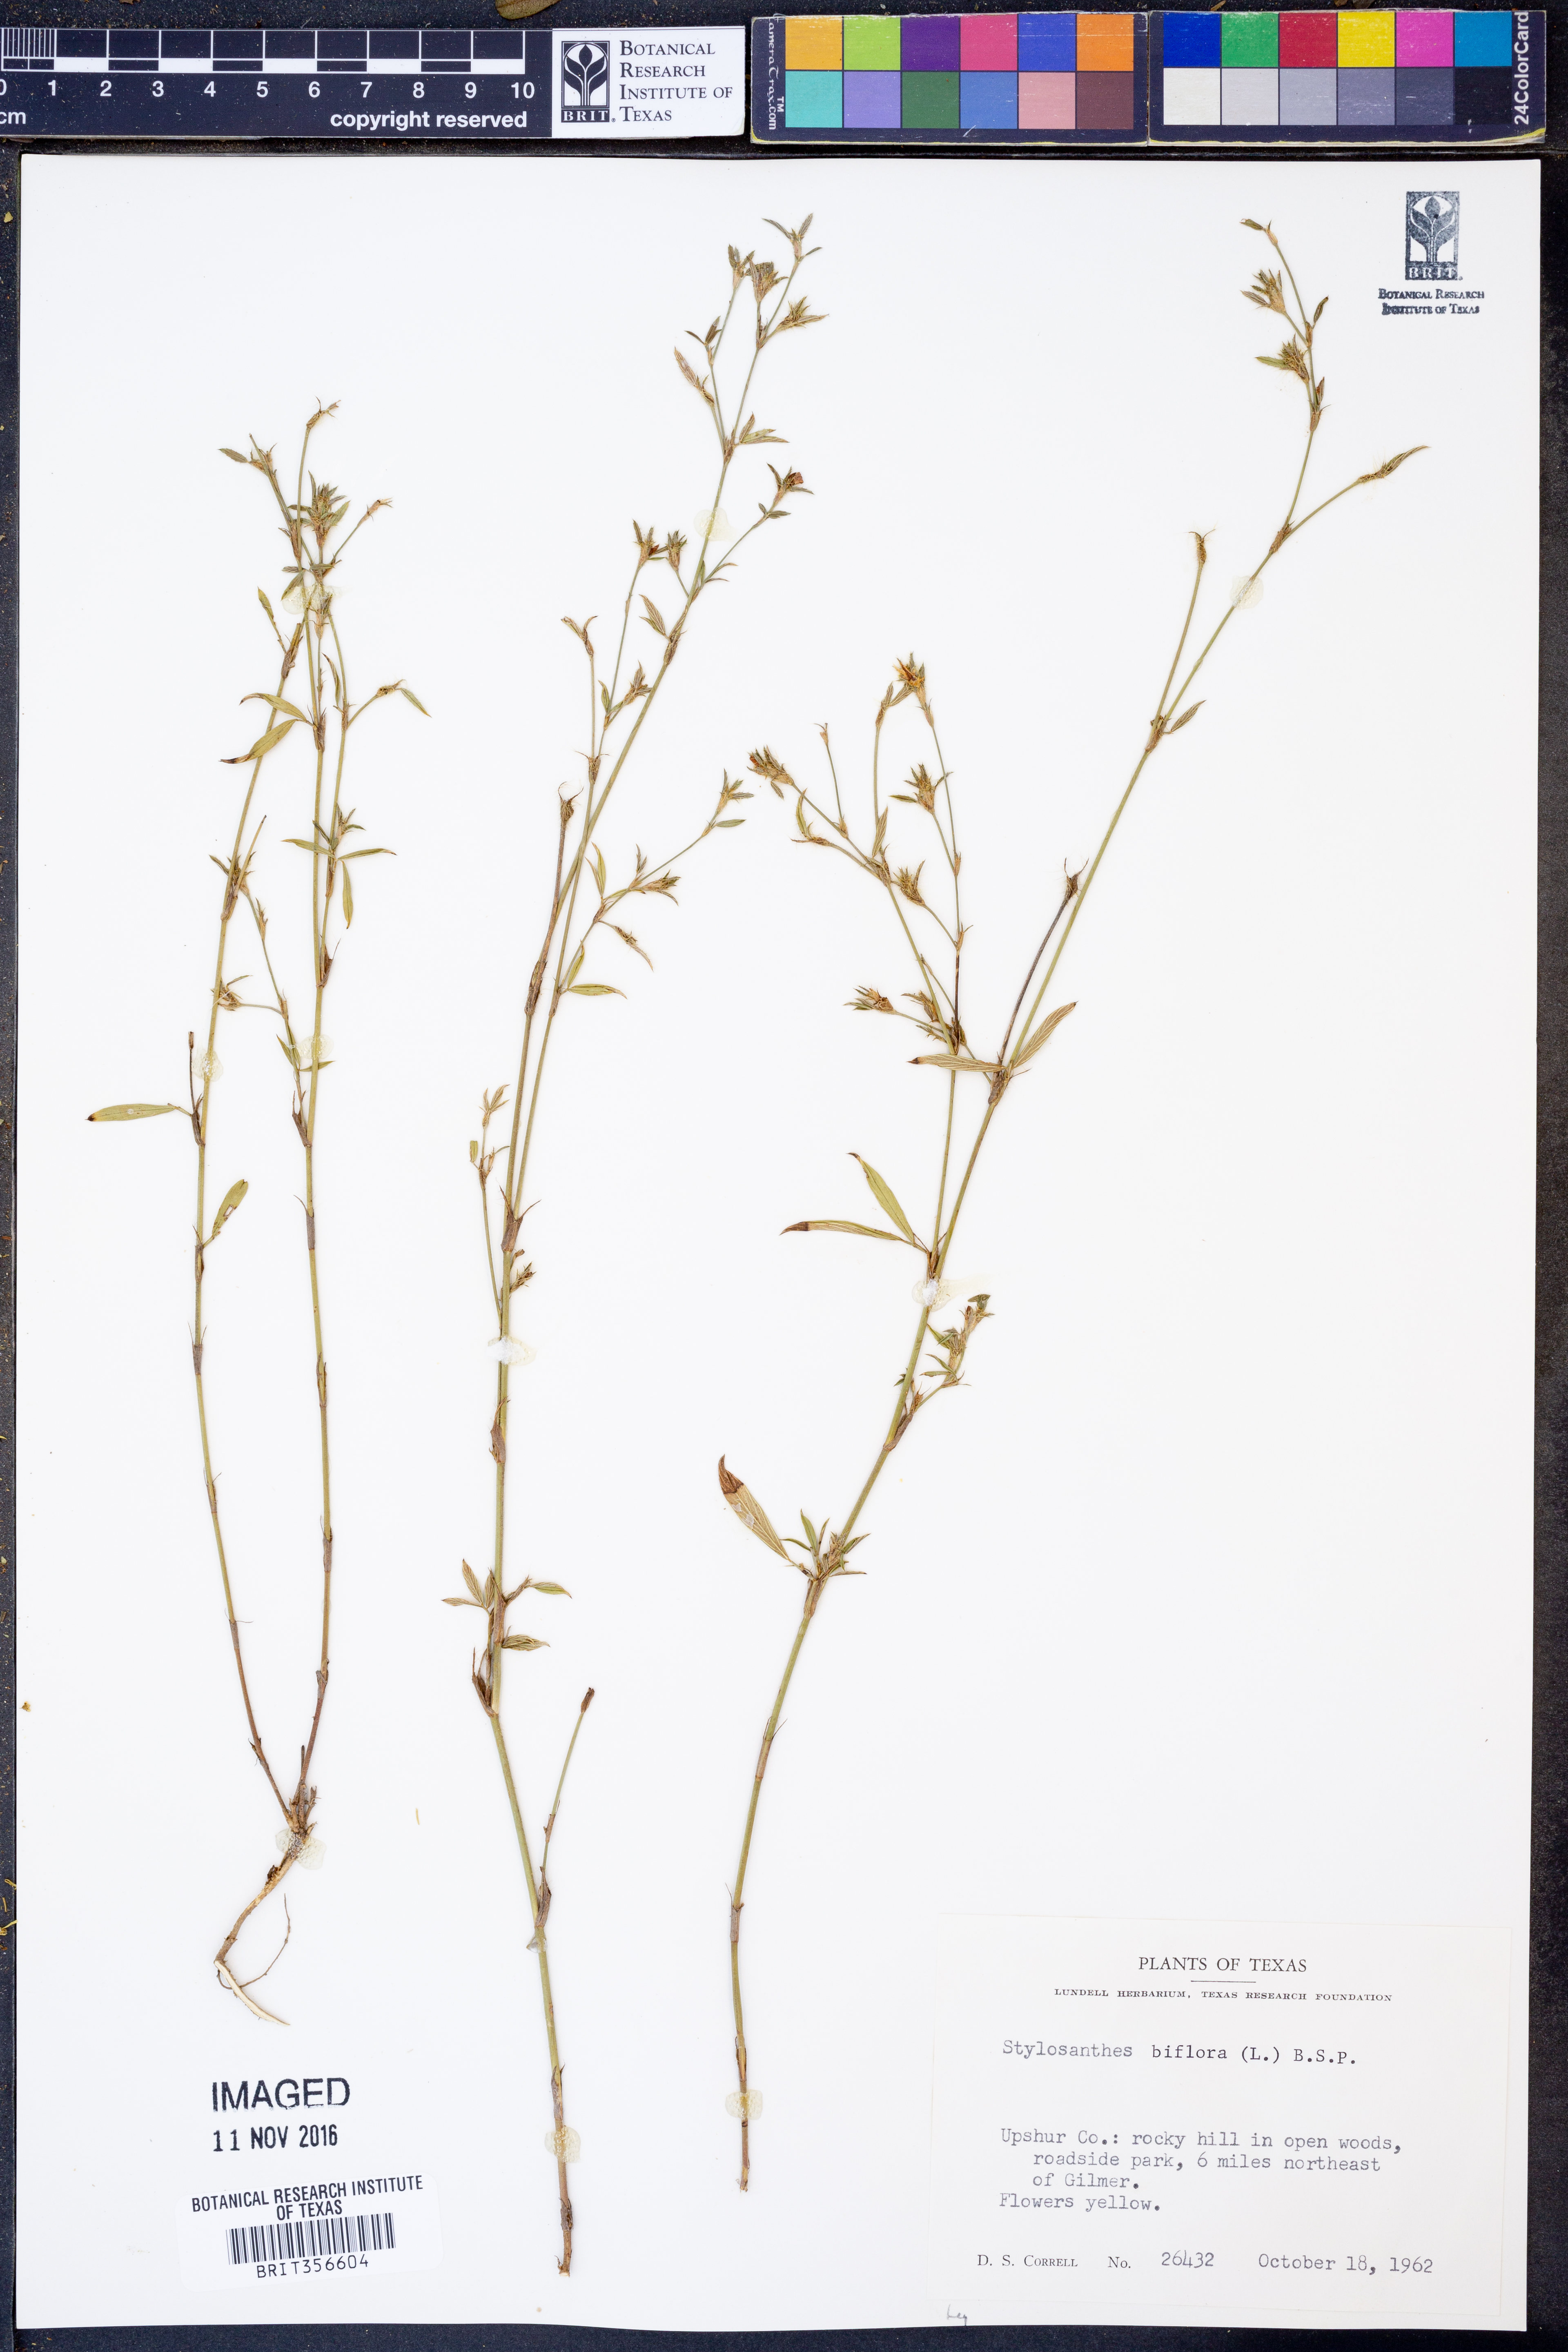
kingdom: Plantae
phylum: Tracheophyta
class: Magnoliopsida
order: Fabales
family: Fabaceae
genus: Stylosanthes
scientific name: Stylosanthes biflora
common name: Two-flower pencil-flower
